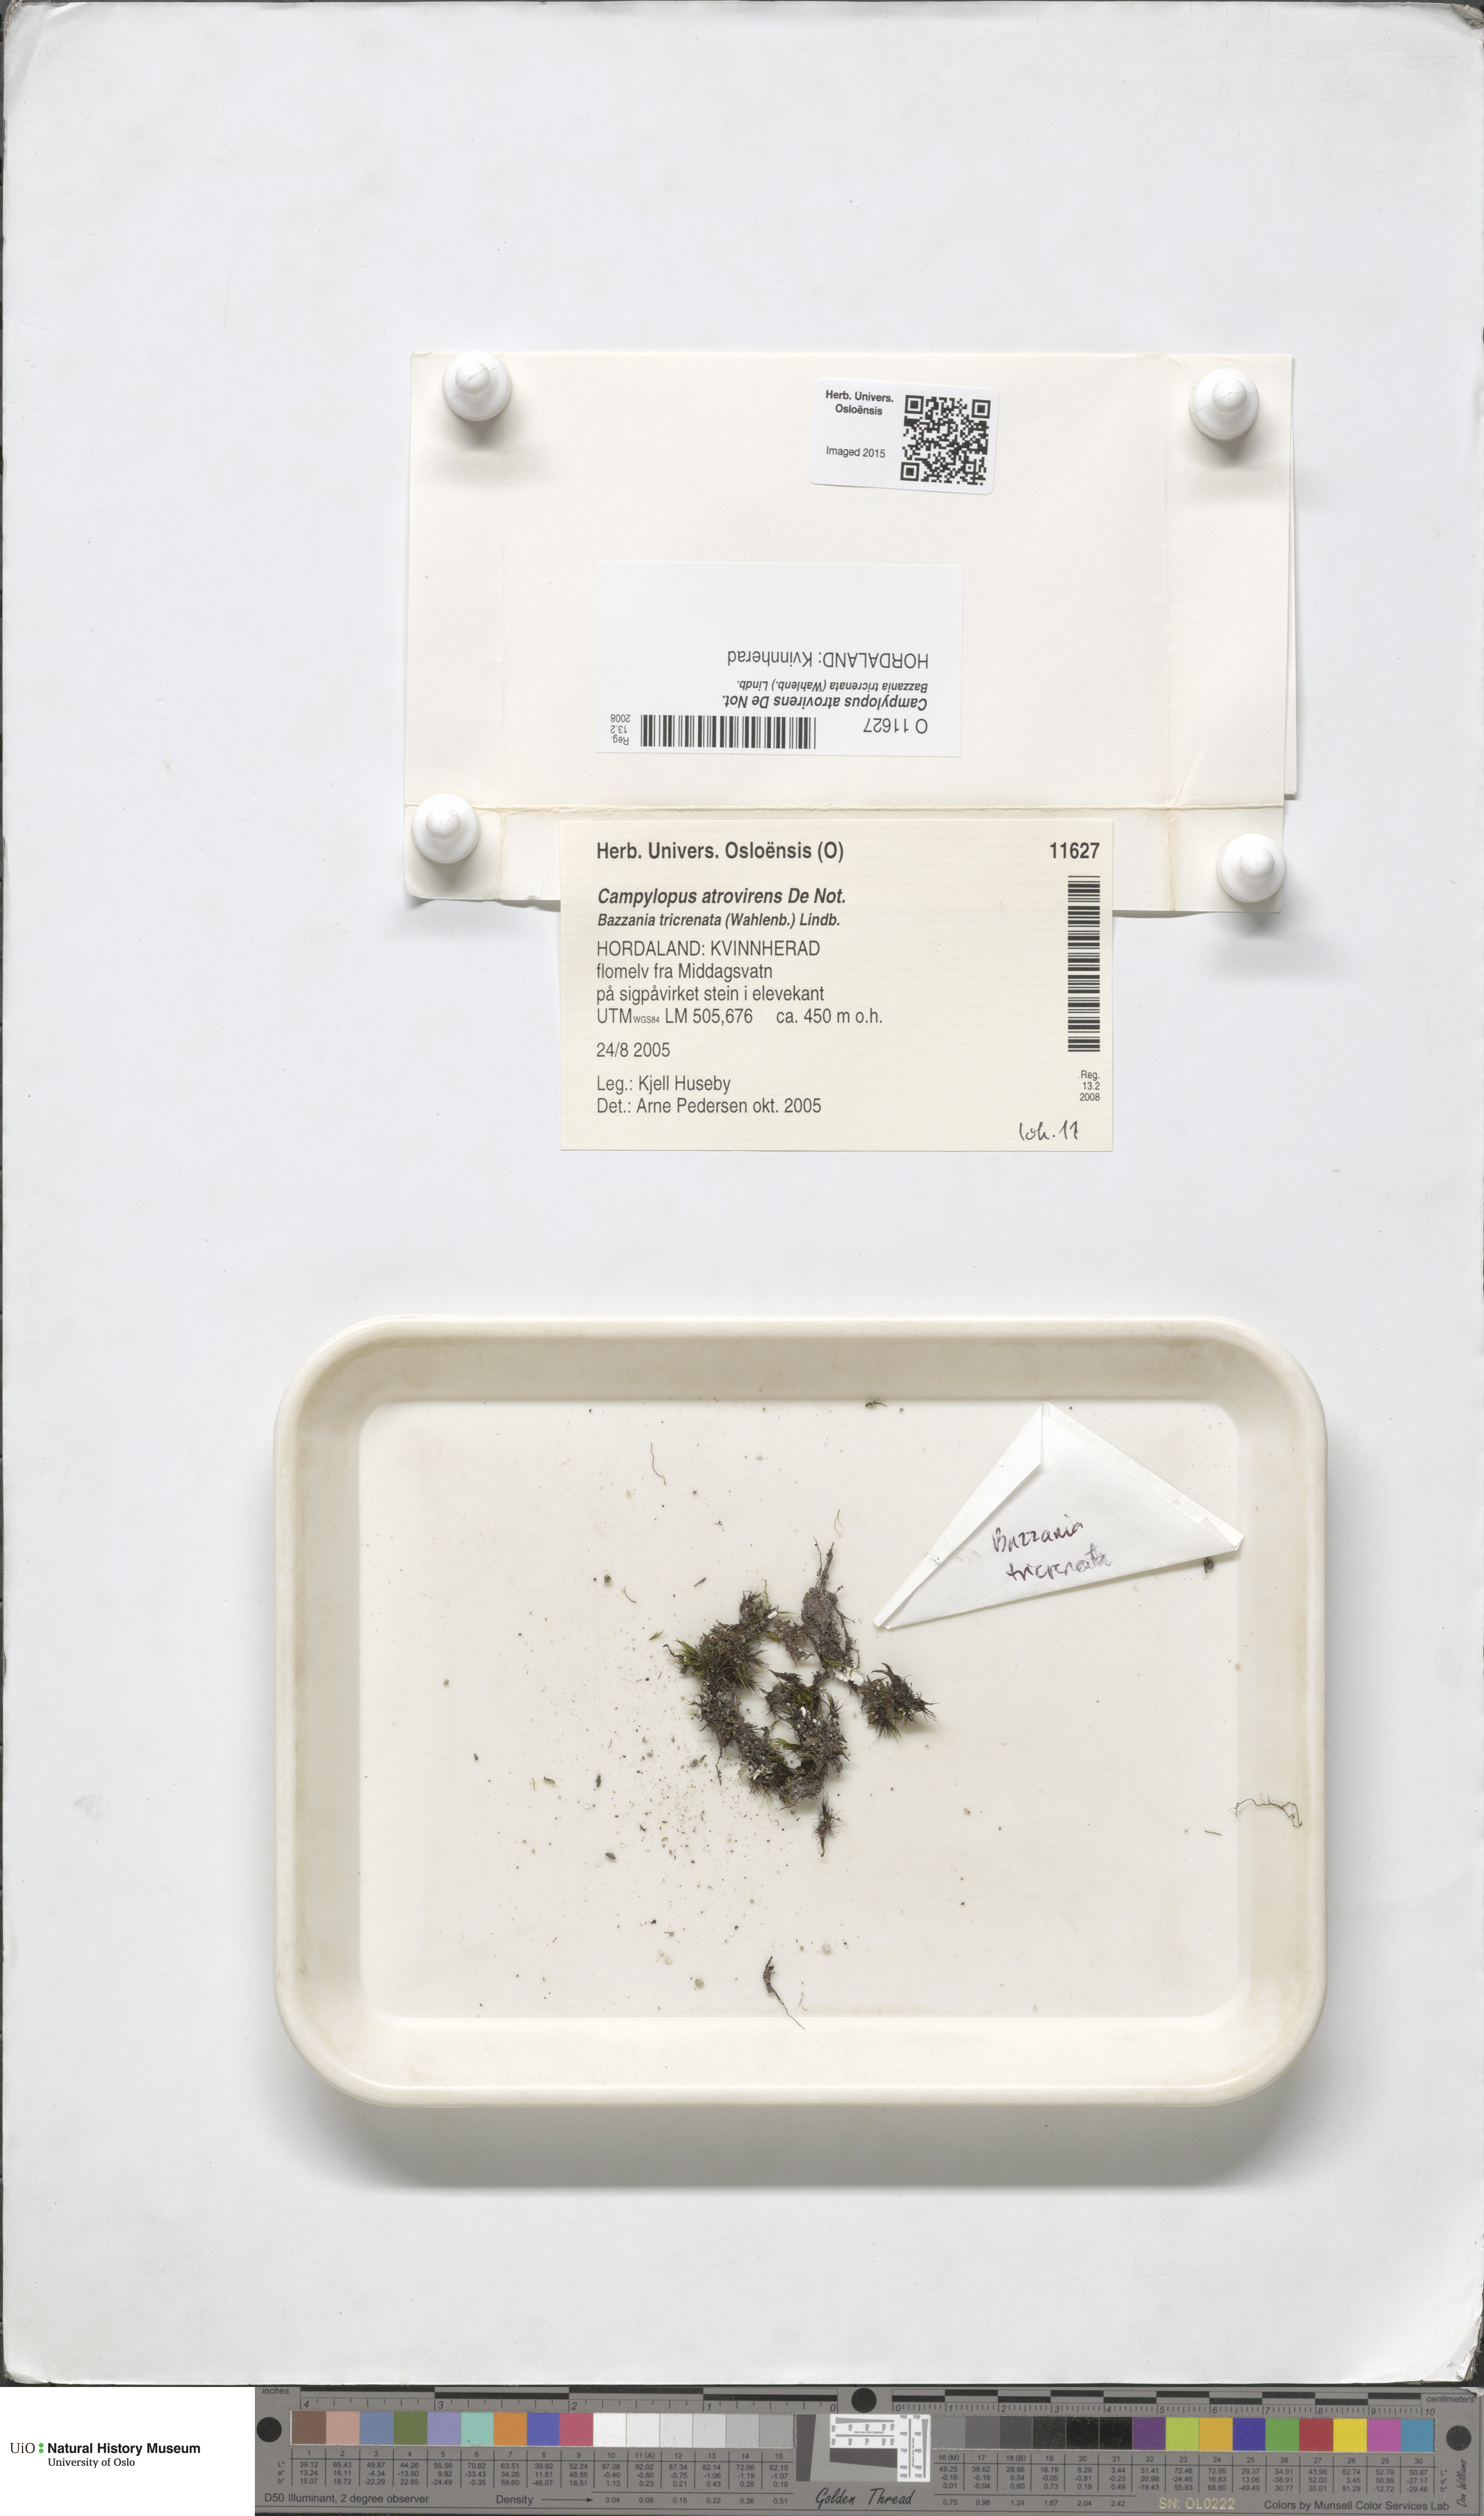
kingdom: Plantae
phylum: Bryophyta
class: Bryopsida
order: Dicranales
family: Leucobryaceae
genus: Campylopus
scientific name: Campylopus atrovirens
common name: Bristly swan-neck moss
